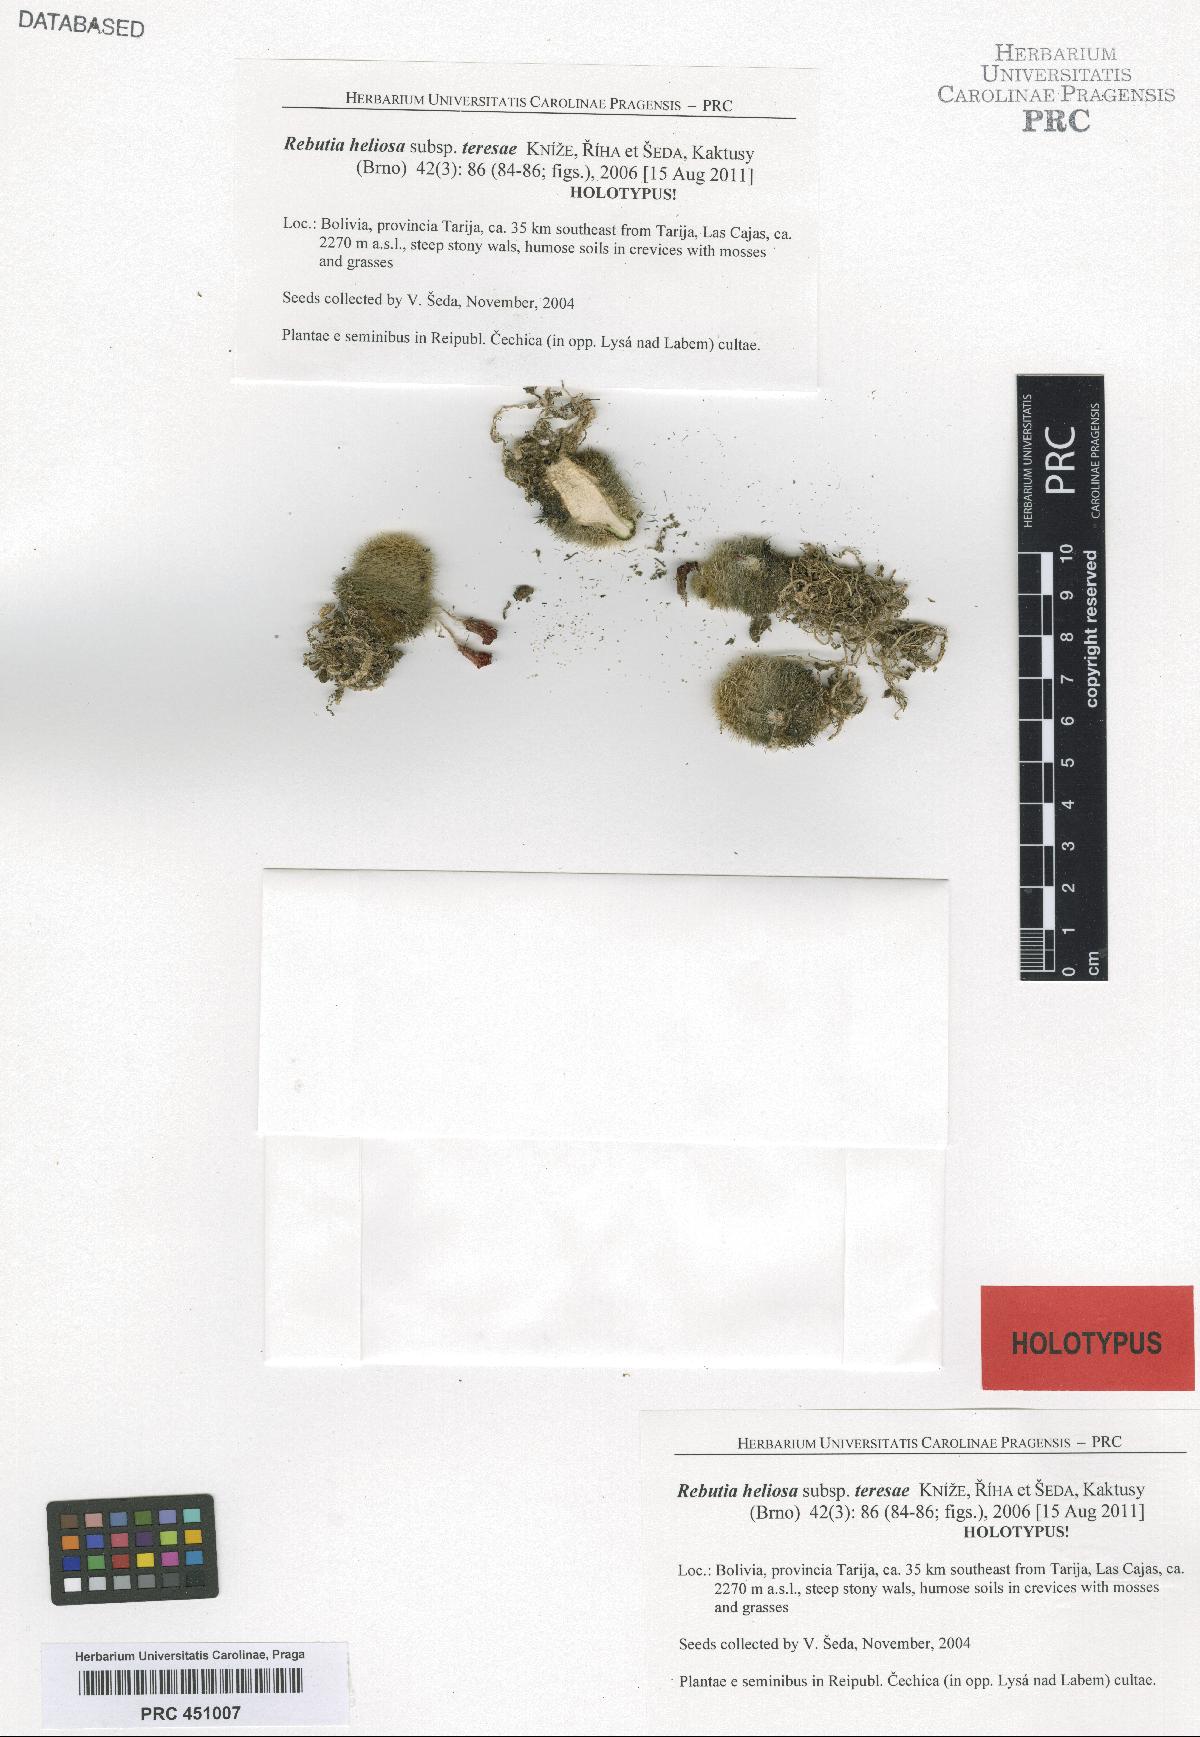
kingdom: Plantae
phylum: Tracheophyta
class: Magnoliopsida
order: Caryophyllales
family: Cactaceae
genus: Aylostera
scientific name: Aylostera deminuta
